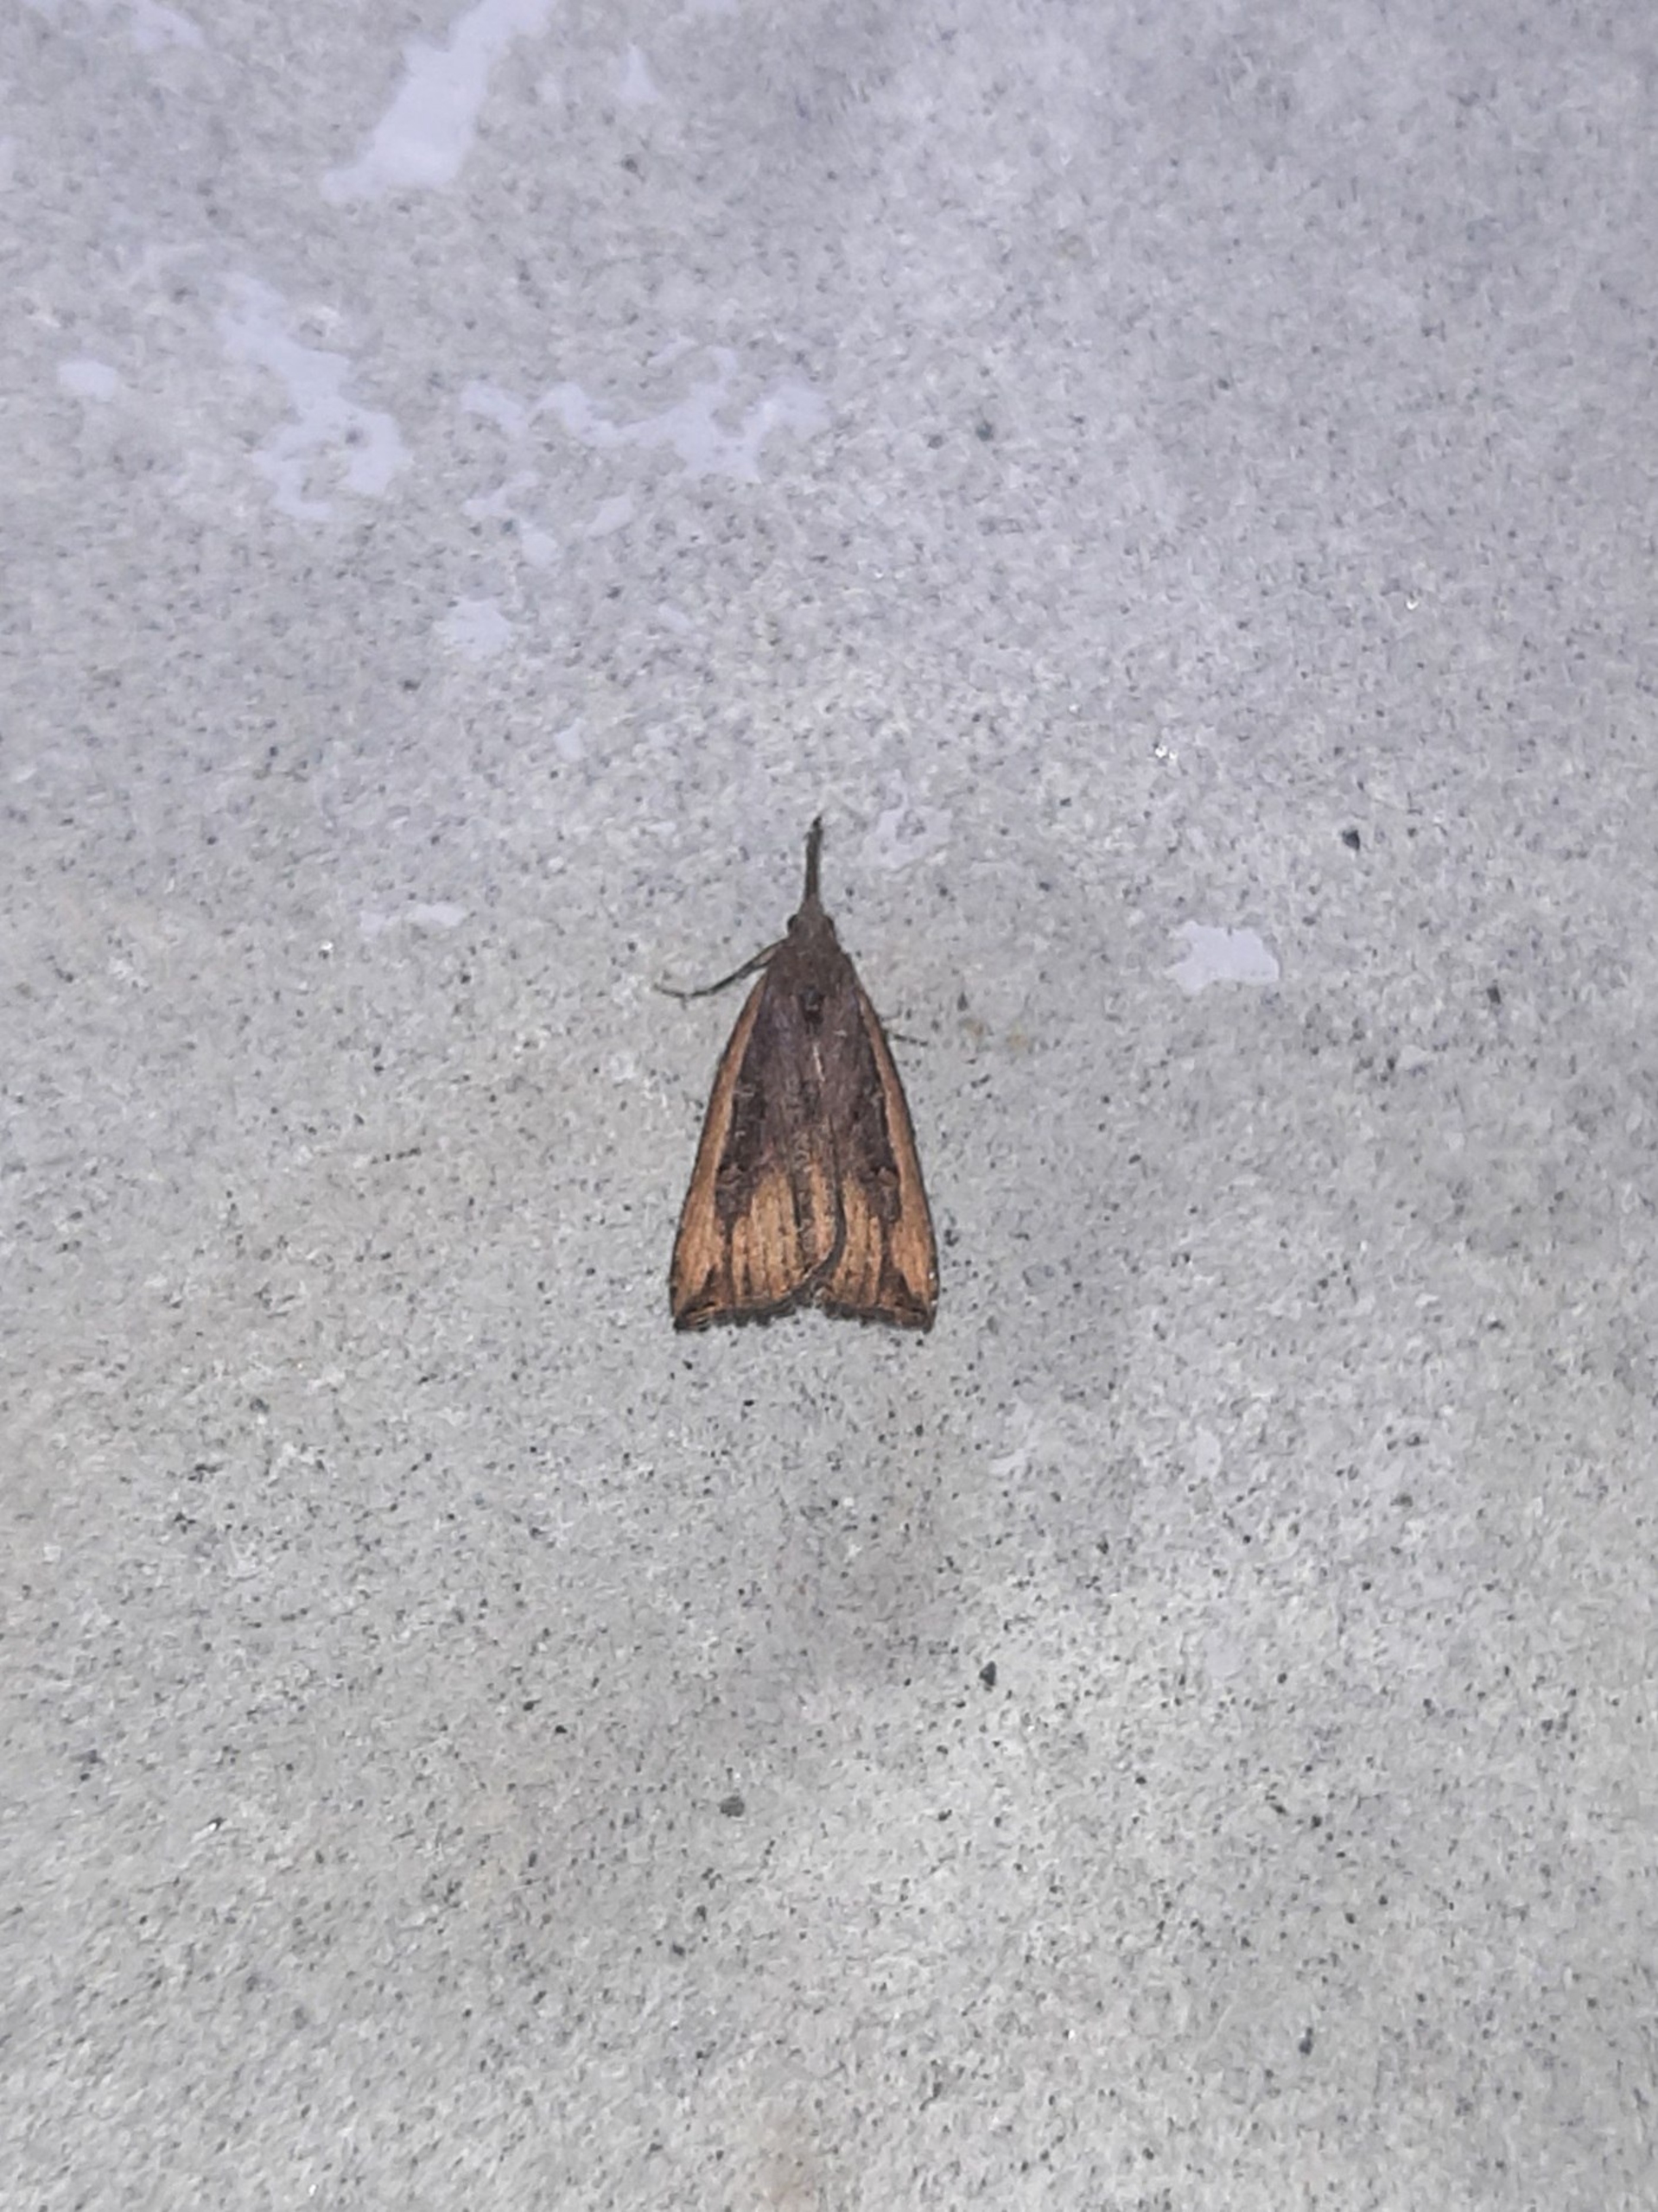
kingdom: Animalia
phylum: Arthropoda
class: Insecta
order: Lepidoptera
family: Erebidae
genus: Hypena
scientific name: Hypena rostralis
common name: Humleugle
